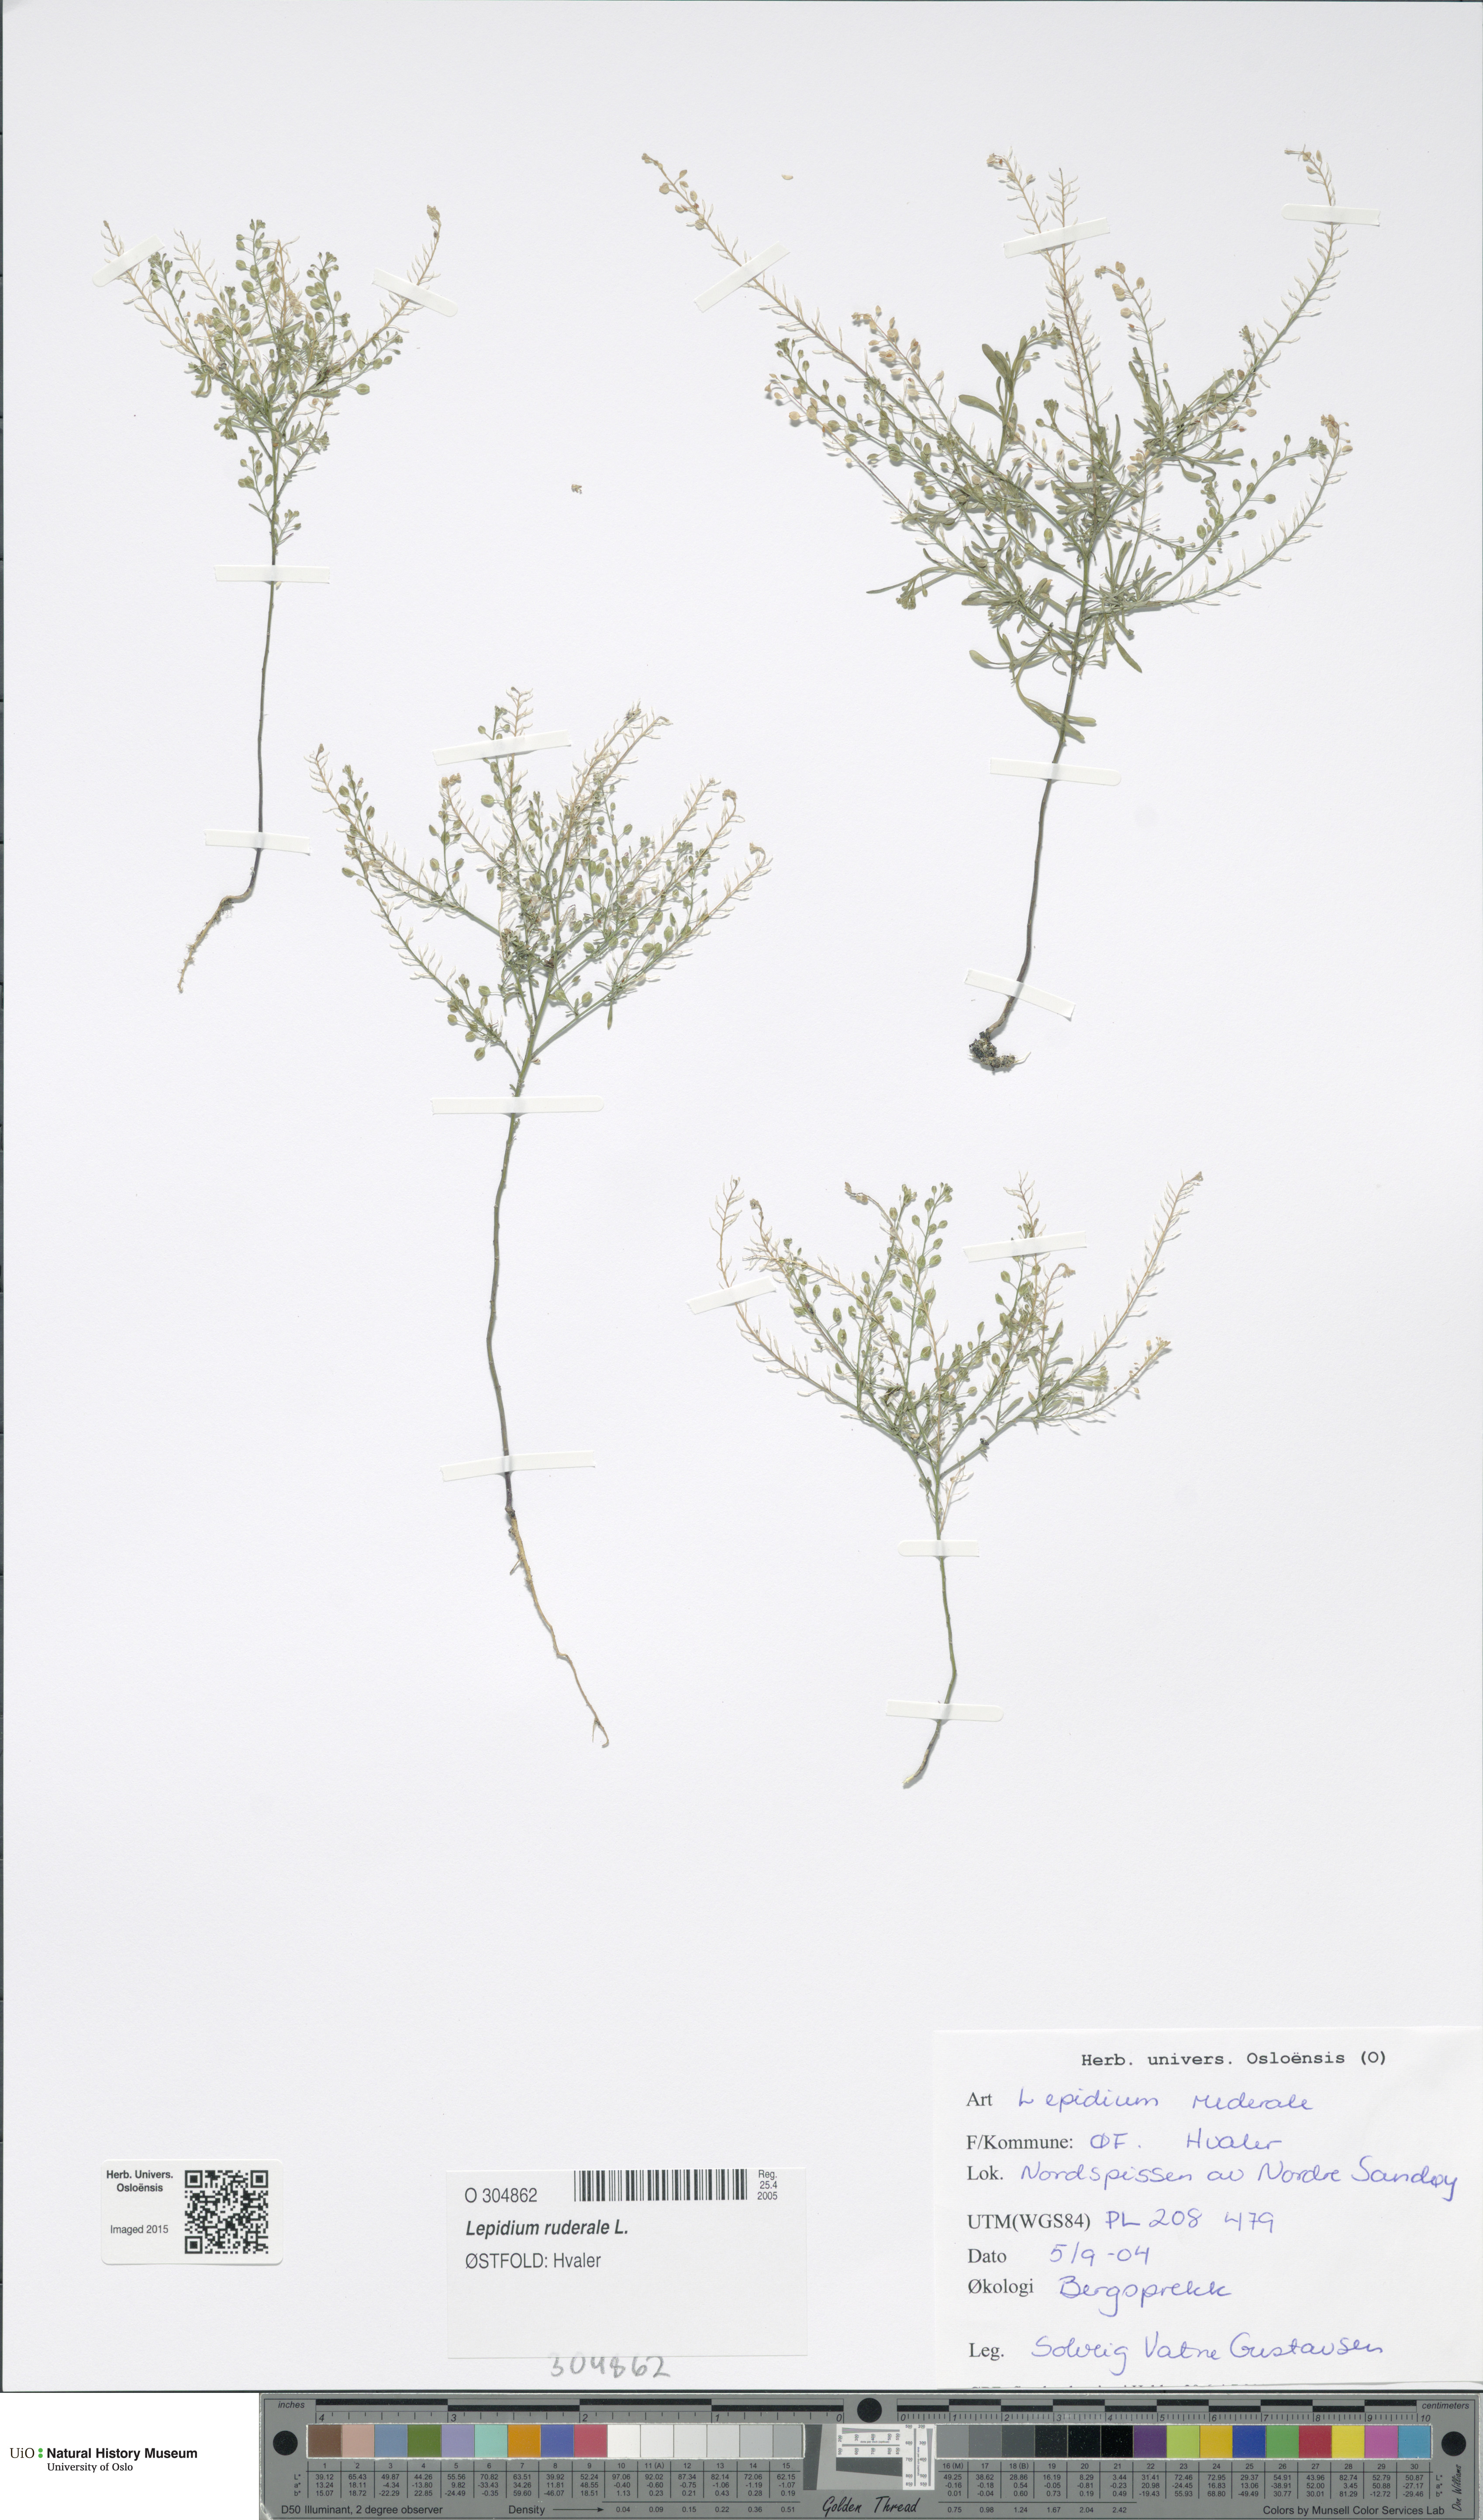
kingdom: Plantae
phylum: Tracheophyta
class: Magnoliopsida
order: Brassicales
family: Brassicaceae
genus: Lepidium
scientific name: Lepidium ruderale
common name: Narrow-leaved pepperwort
